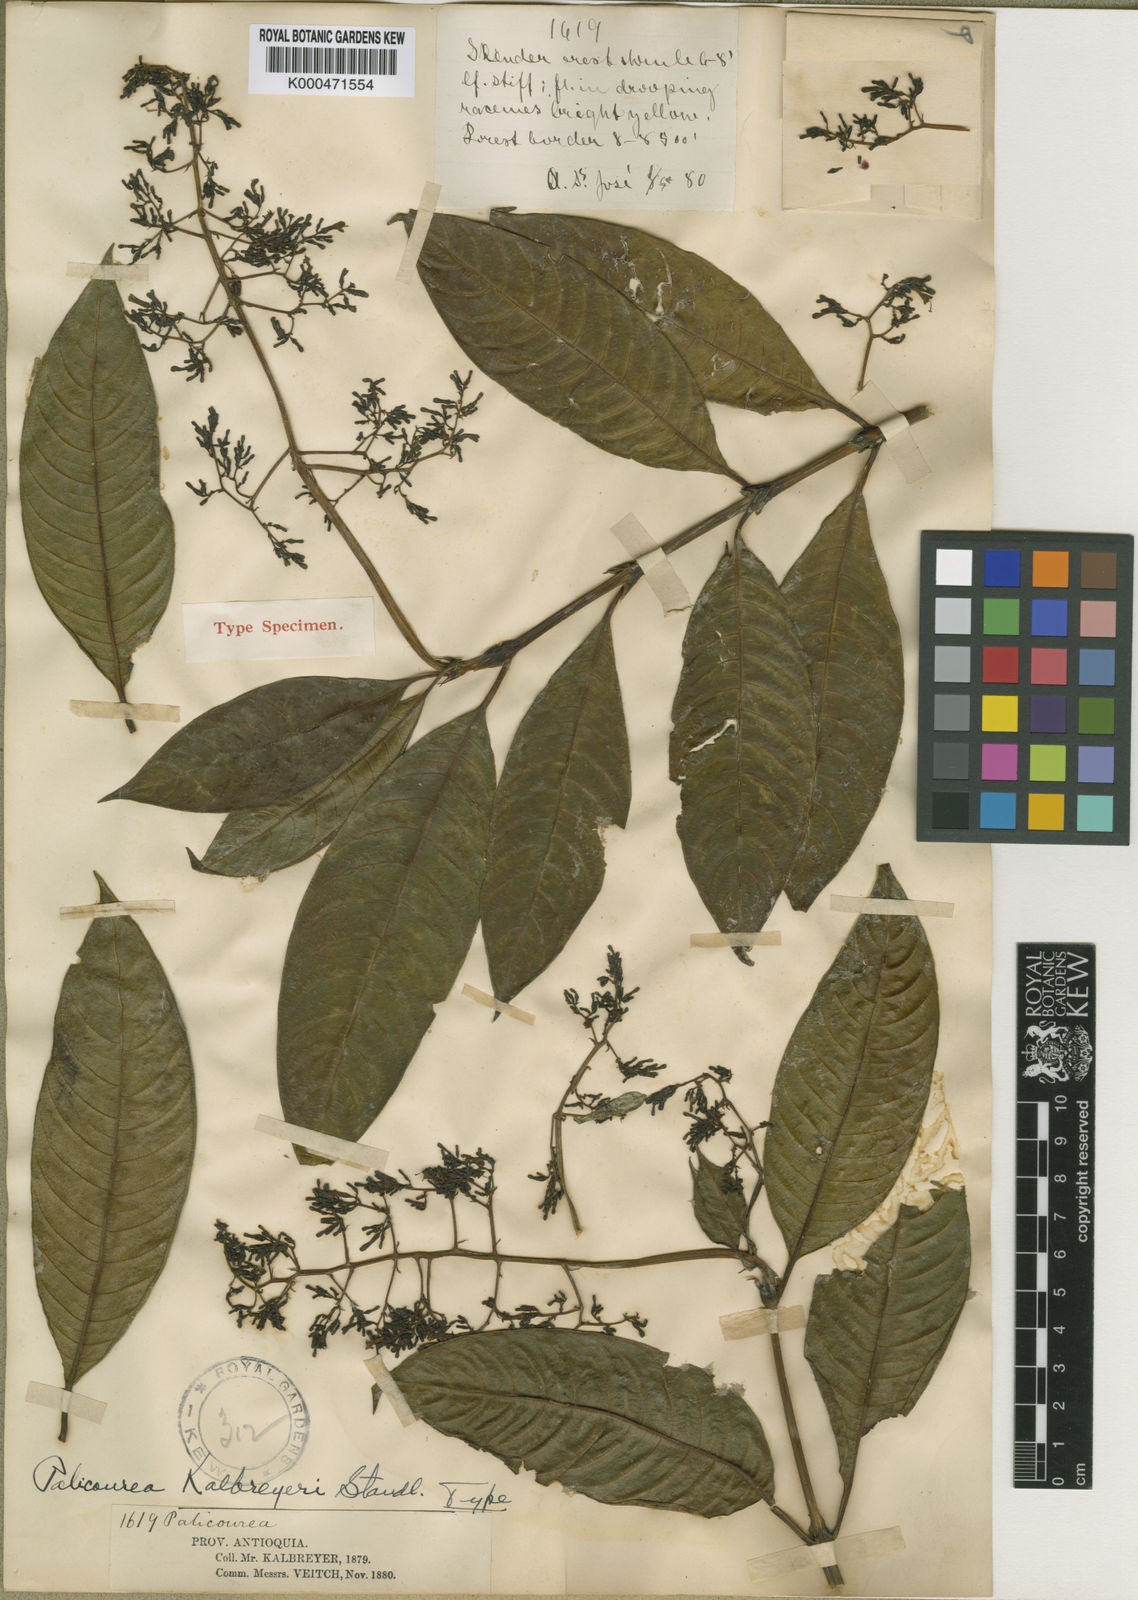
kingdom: Plantae
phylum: Tracheophyta
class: Magnoliopsida
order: Gentianales
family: Rubiaceae
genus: Palicourea
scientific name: Palicourea lasiorrhachis
